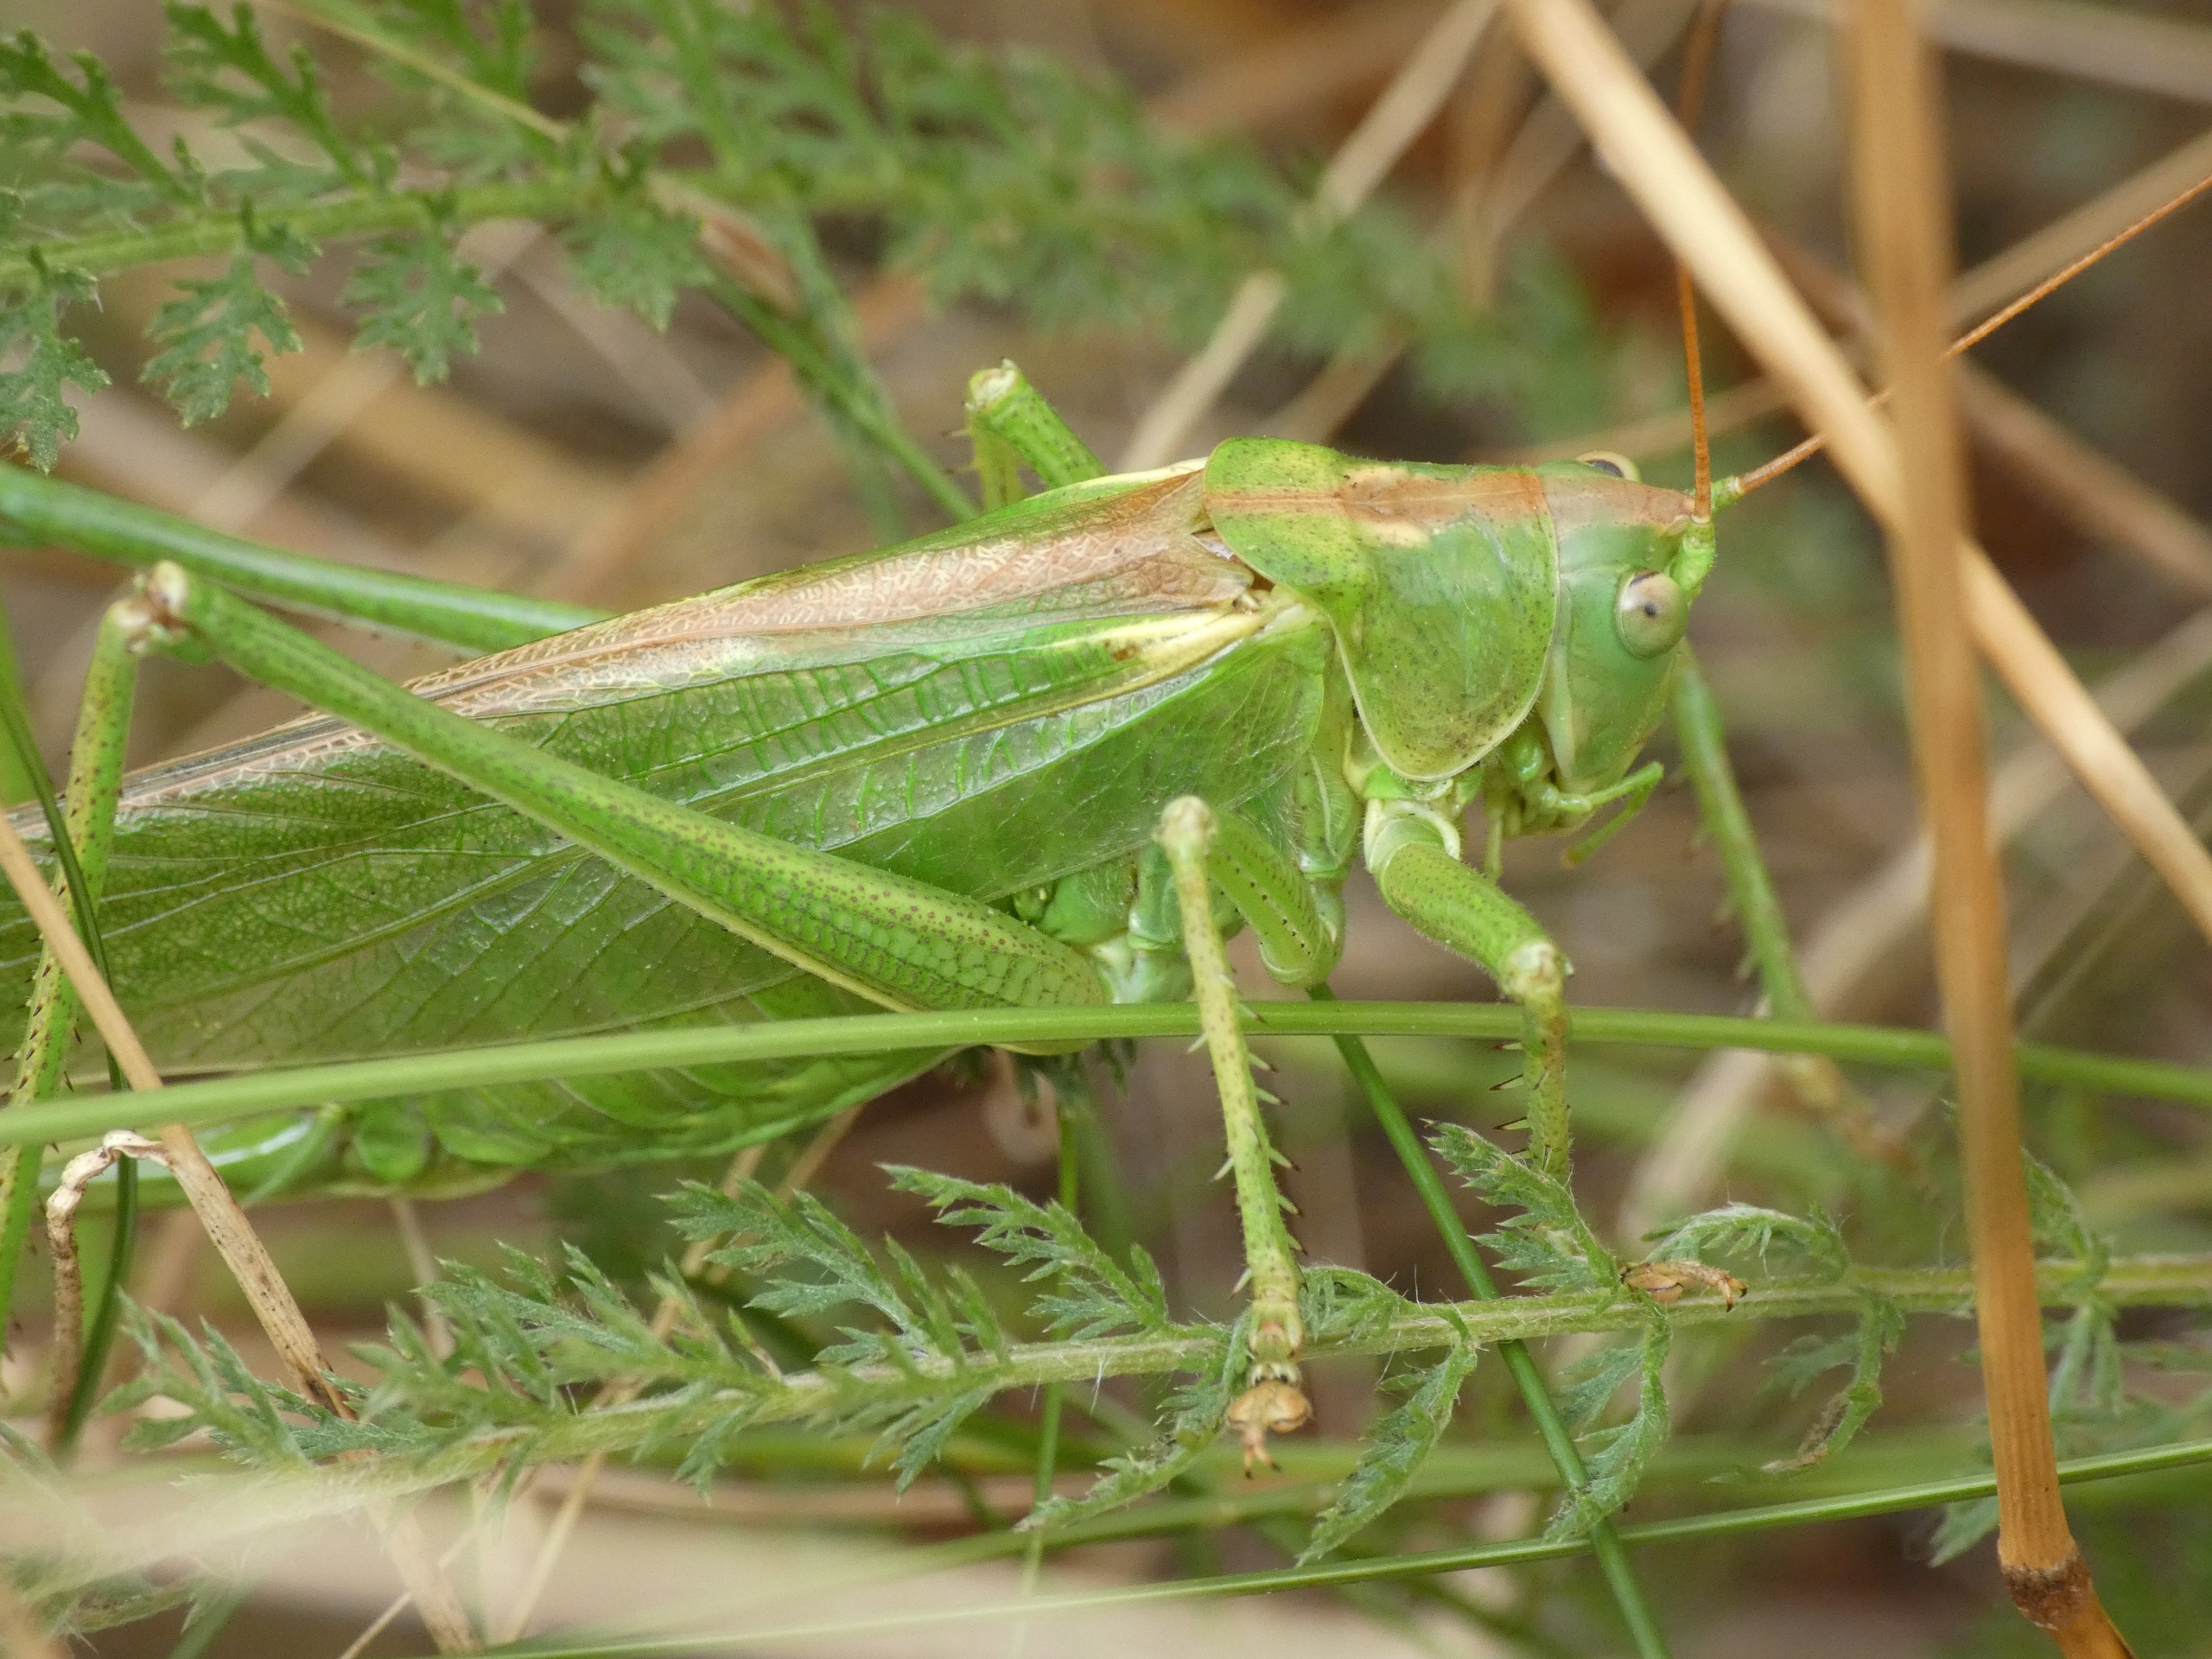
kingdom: Animalia
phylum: Arthropoda
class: Insecta
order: Orthoptera
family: Tettigoniidae
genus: Tettigonia
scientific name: Tettigonia viridissima
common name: Stor grøn løvgræshoppe
